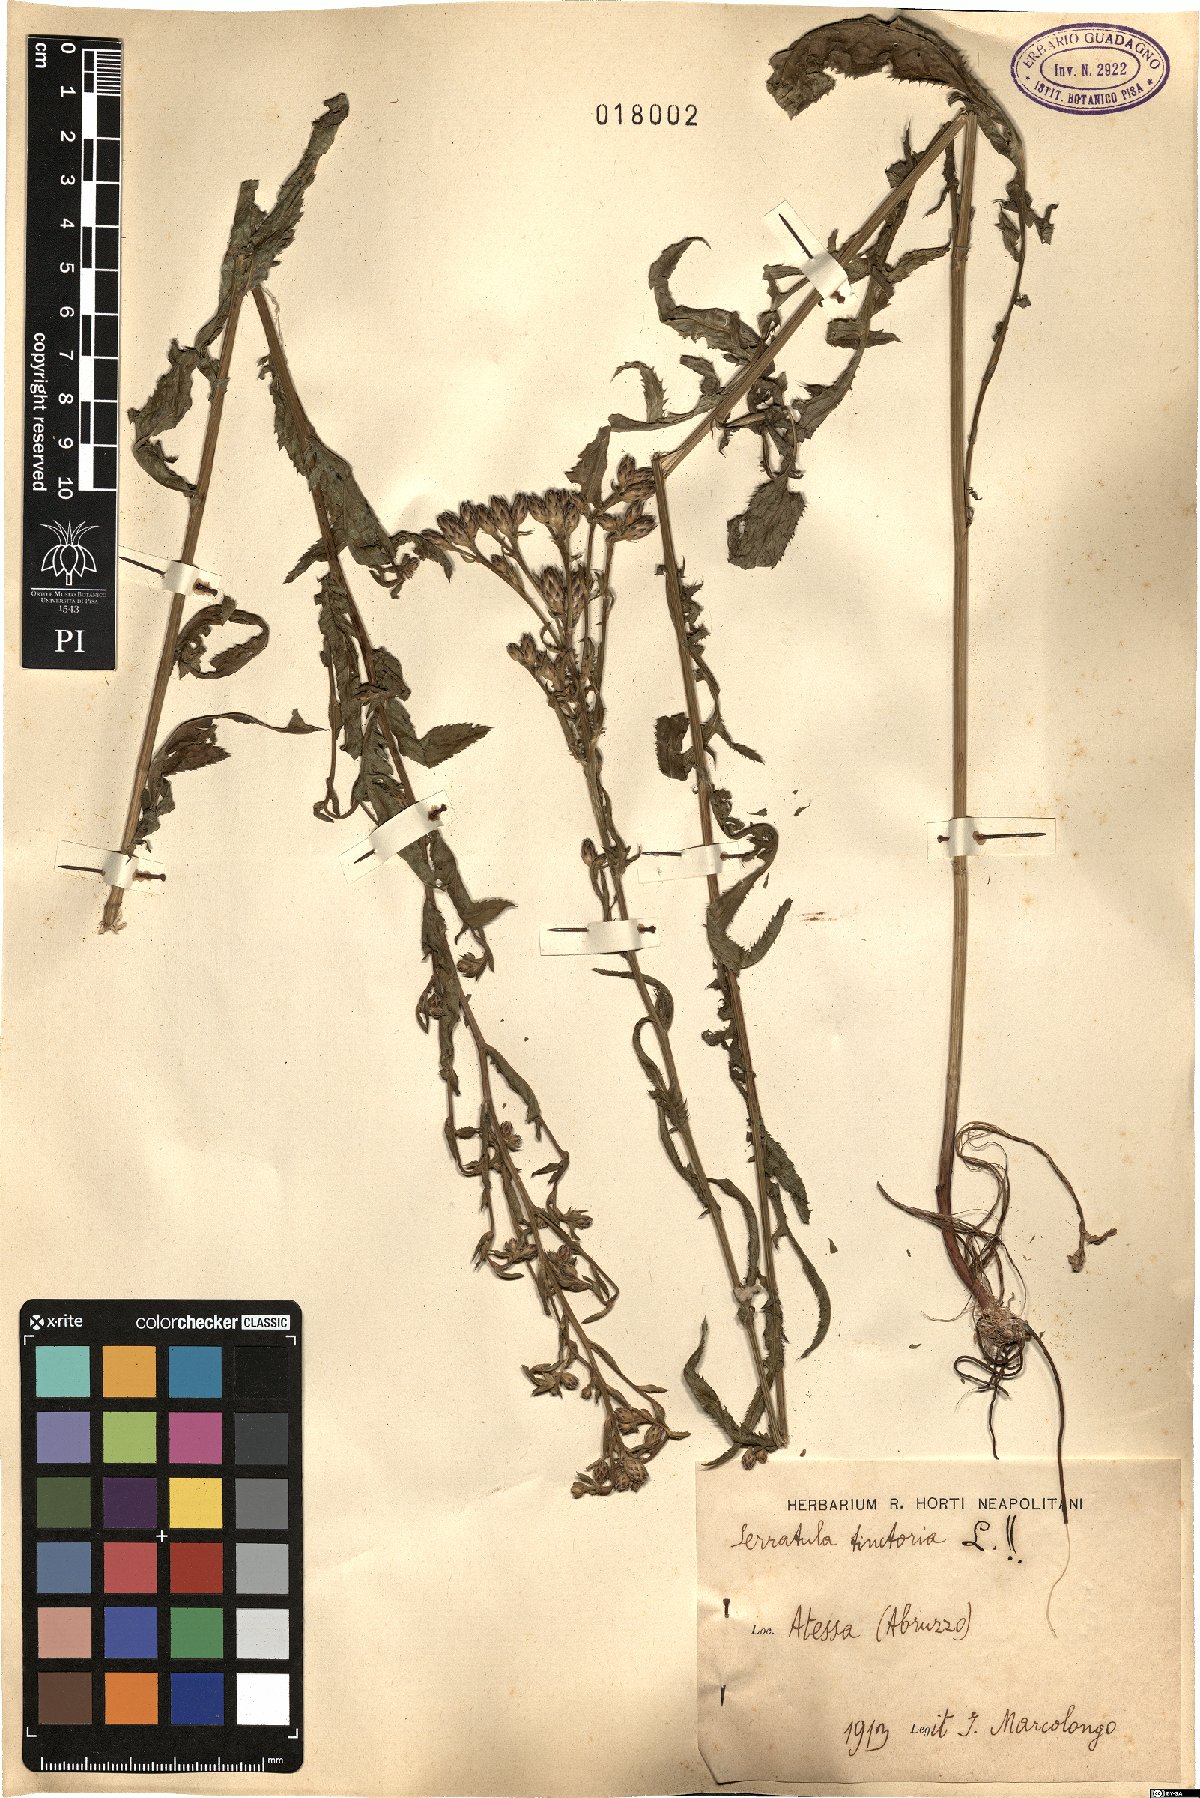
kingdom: Plantae
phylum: Tracheophyta
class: Magnoliopsida
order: Asterales
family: Asteraceae
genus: Serratula
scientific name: Serratula tinctoria
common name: Saw-wort
